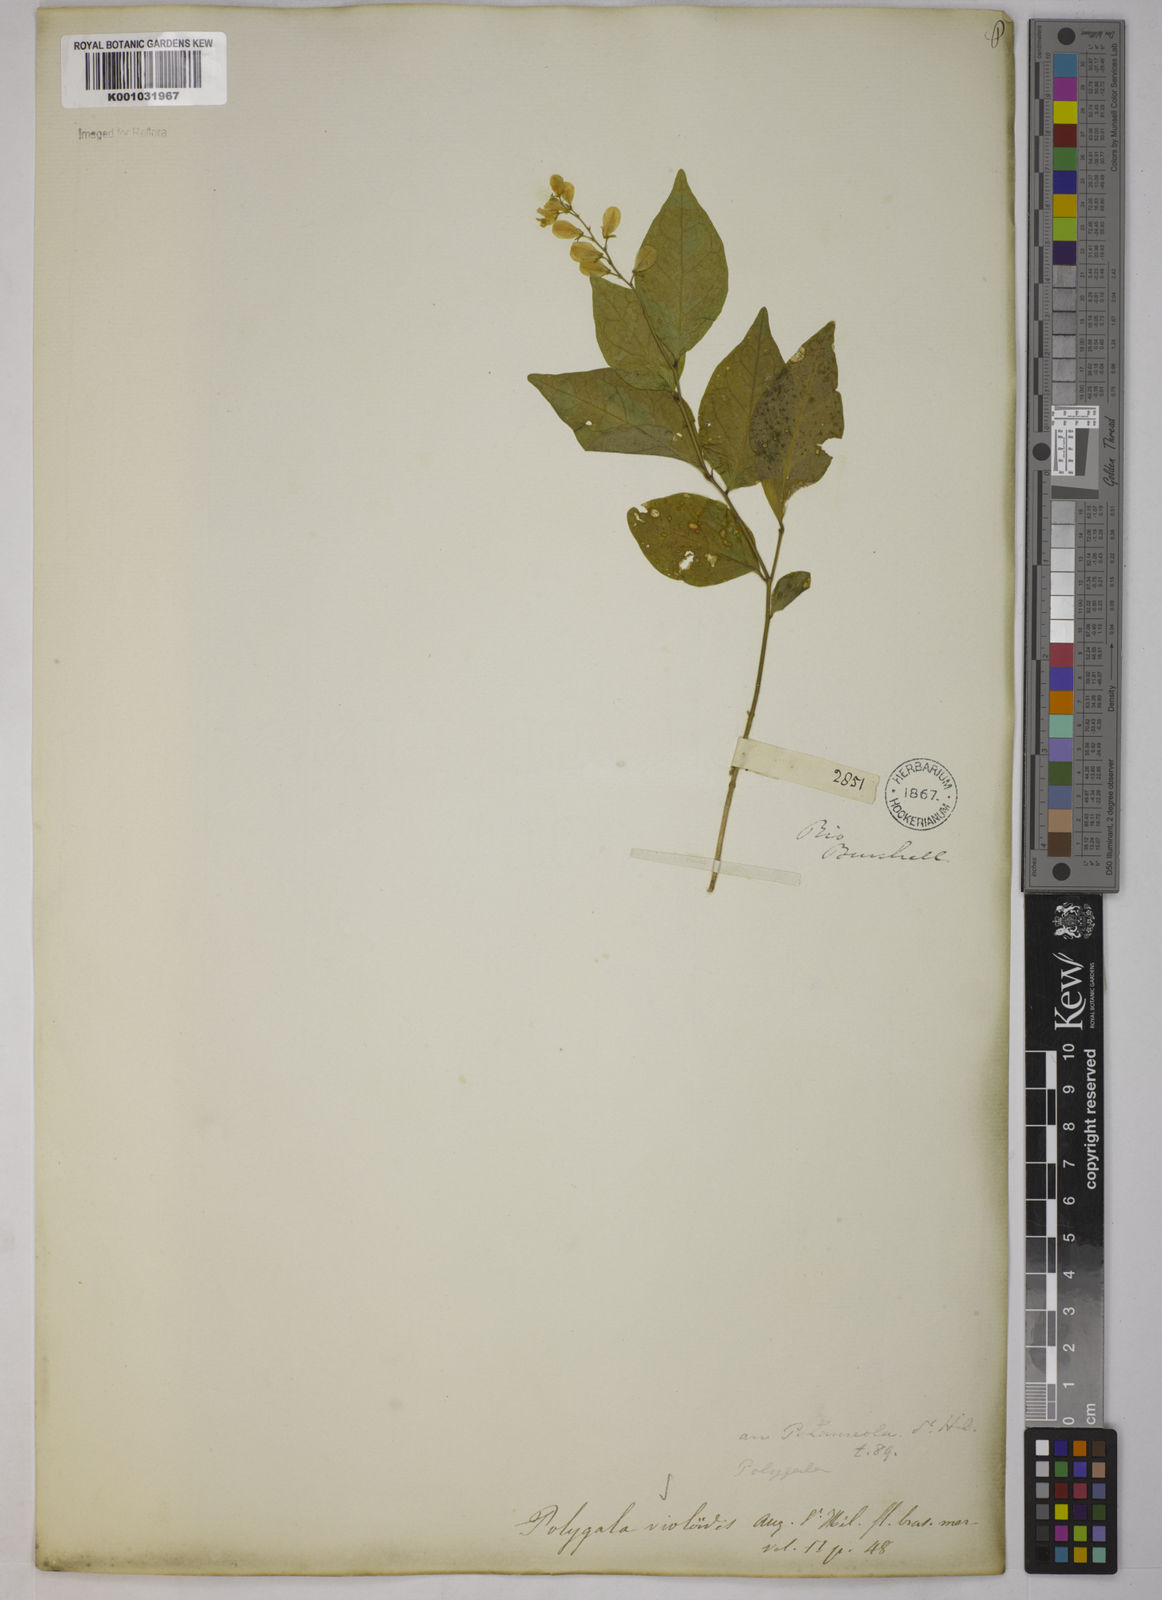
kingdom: Plantae
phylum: Tracheophyta
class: Magnoliopsida
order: Fabales
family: Polygalaceae
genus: Gymnospora
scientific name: Gymnospora violoides
